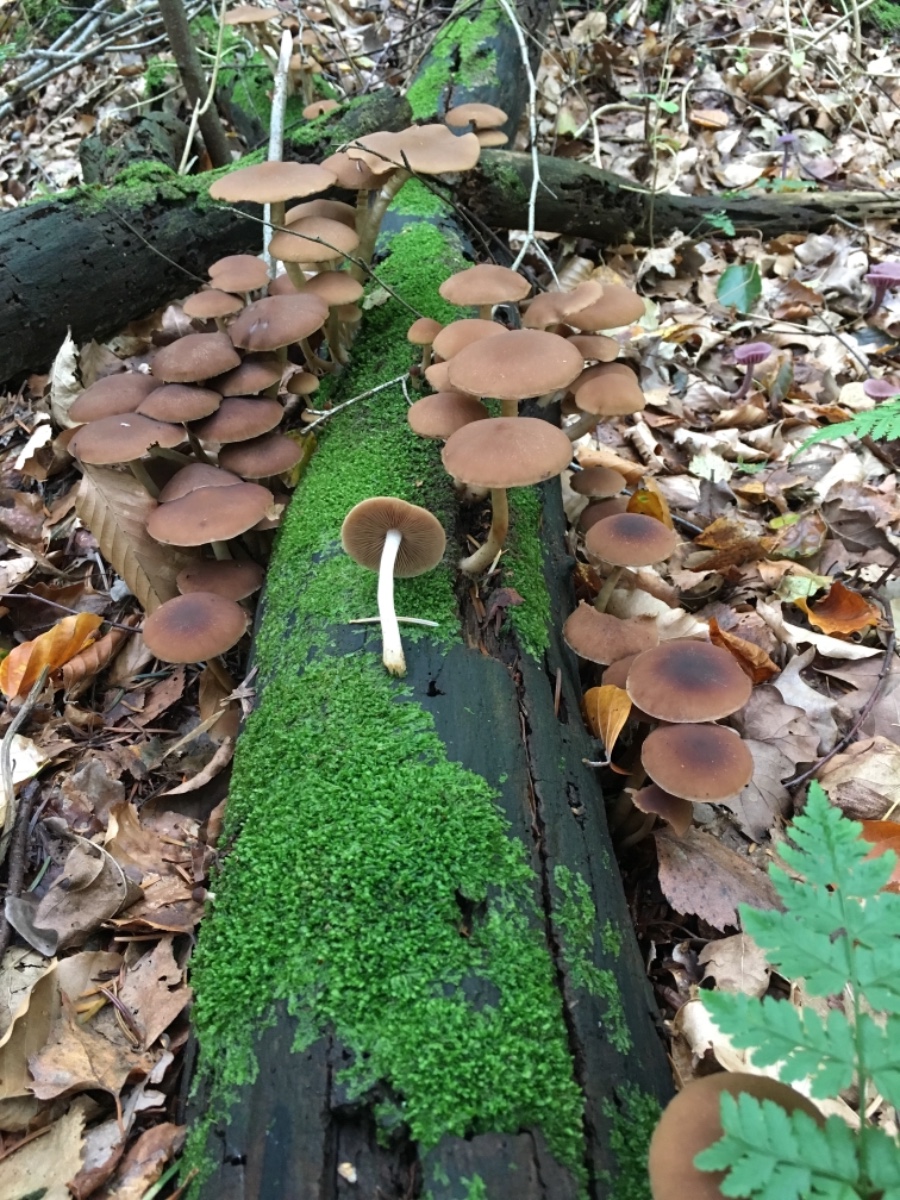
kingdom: Fungi
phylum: Basidiomycota
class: Agaricomycetes
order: Agaricales
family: Psathyrellaceae
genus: Psathyrella
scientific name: Psathyrella piluliformis
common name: lysstokket mørkhat
